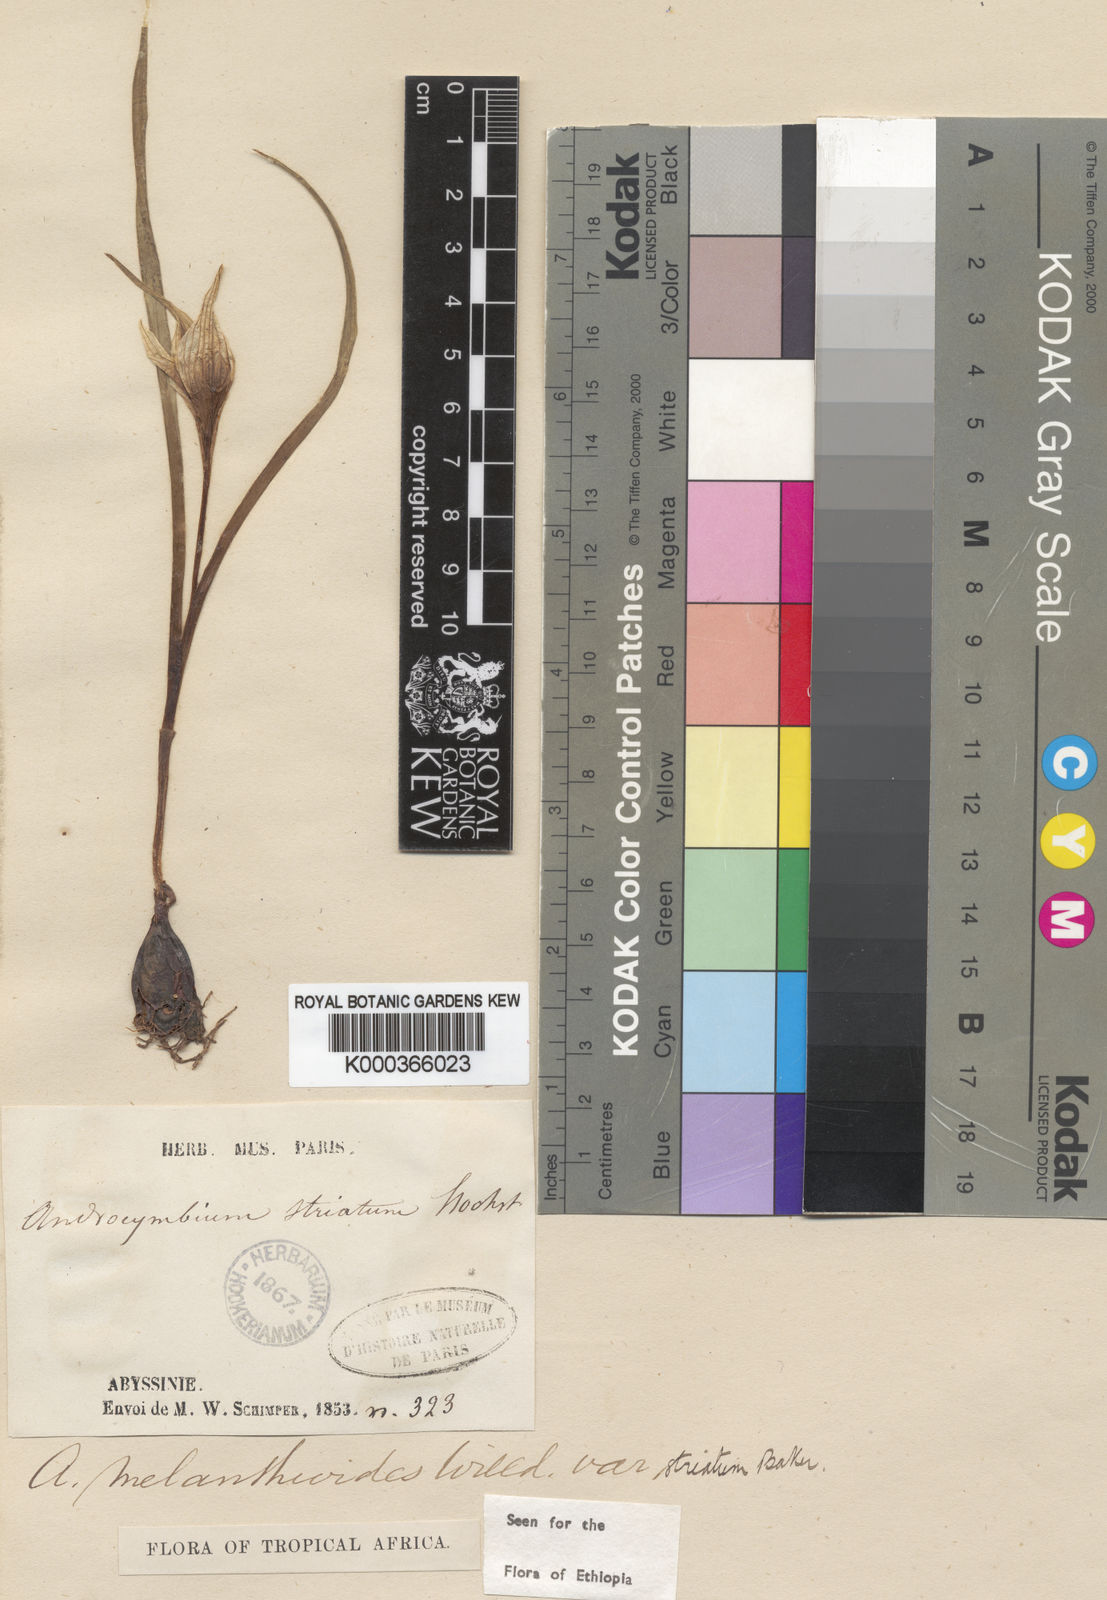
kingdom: Plantae
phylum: Tracheophyta
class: Liliopsida
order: Liliales
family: Colchicaceae
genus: Colchicum
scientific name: Colchicum striatum
